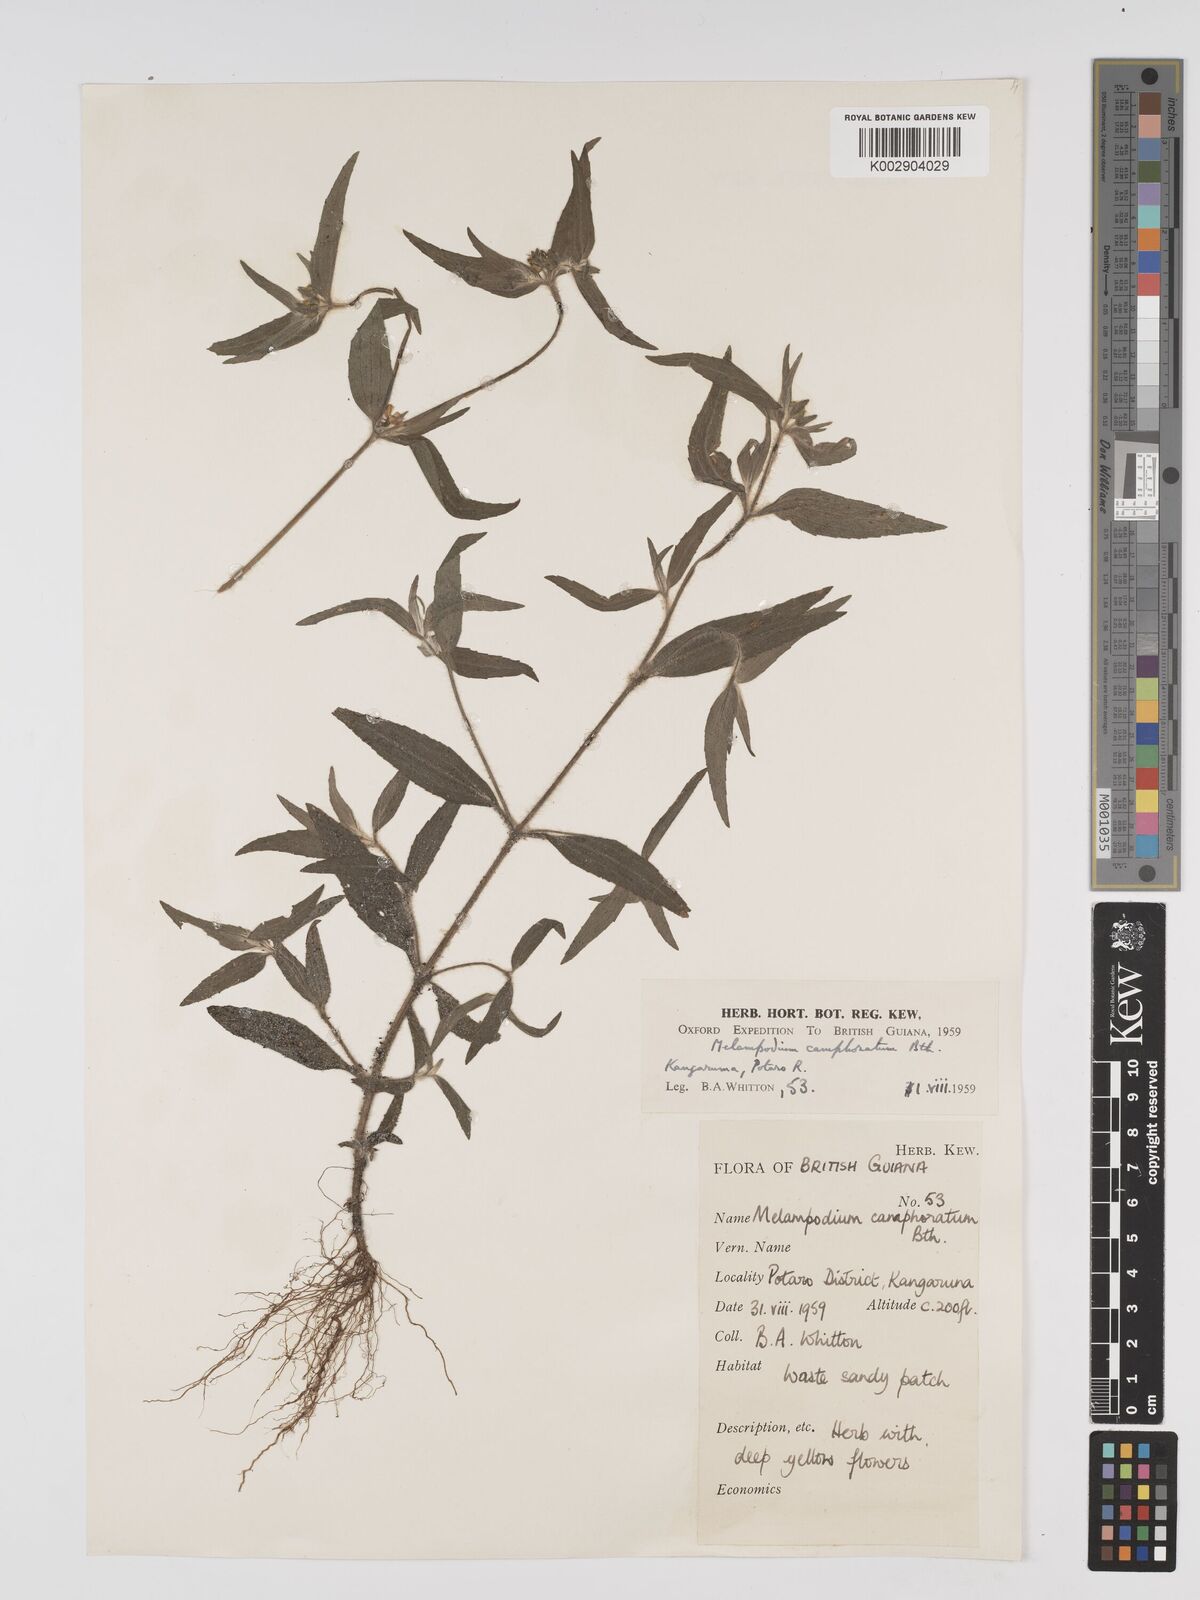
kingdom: Plantae
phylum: Tracheophyta
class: Magnoliopsida
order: Asterales
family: Asteraceae
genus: Unxia
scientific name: Unxia camphorata
